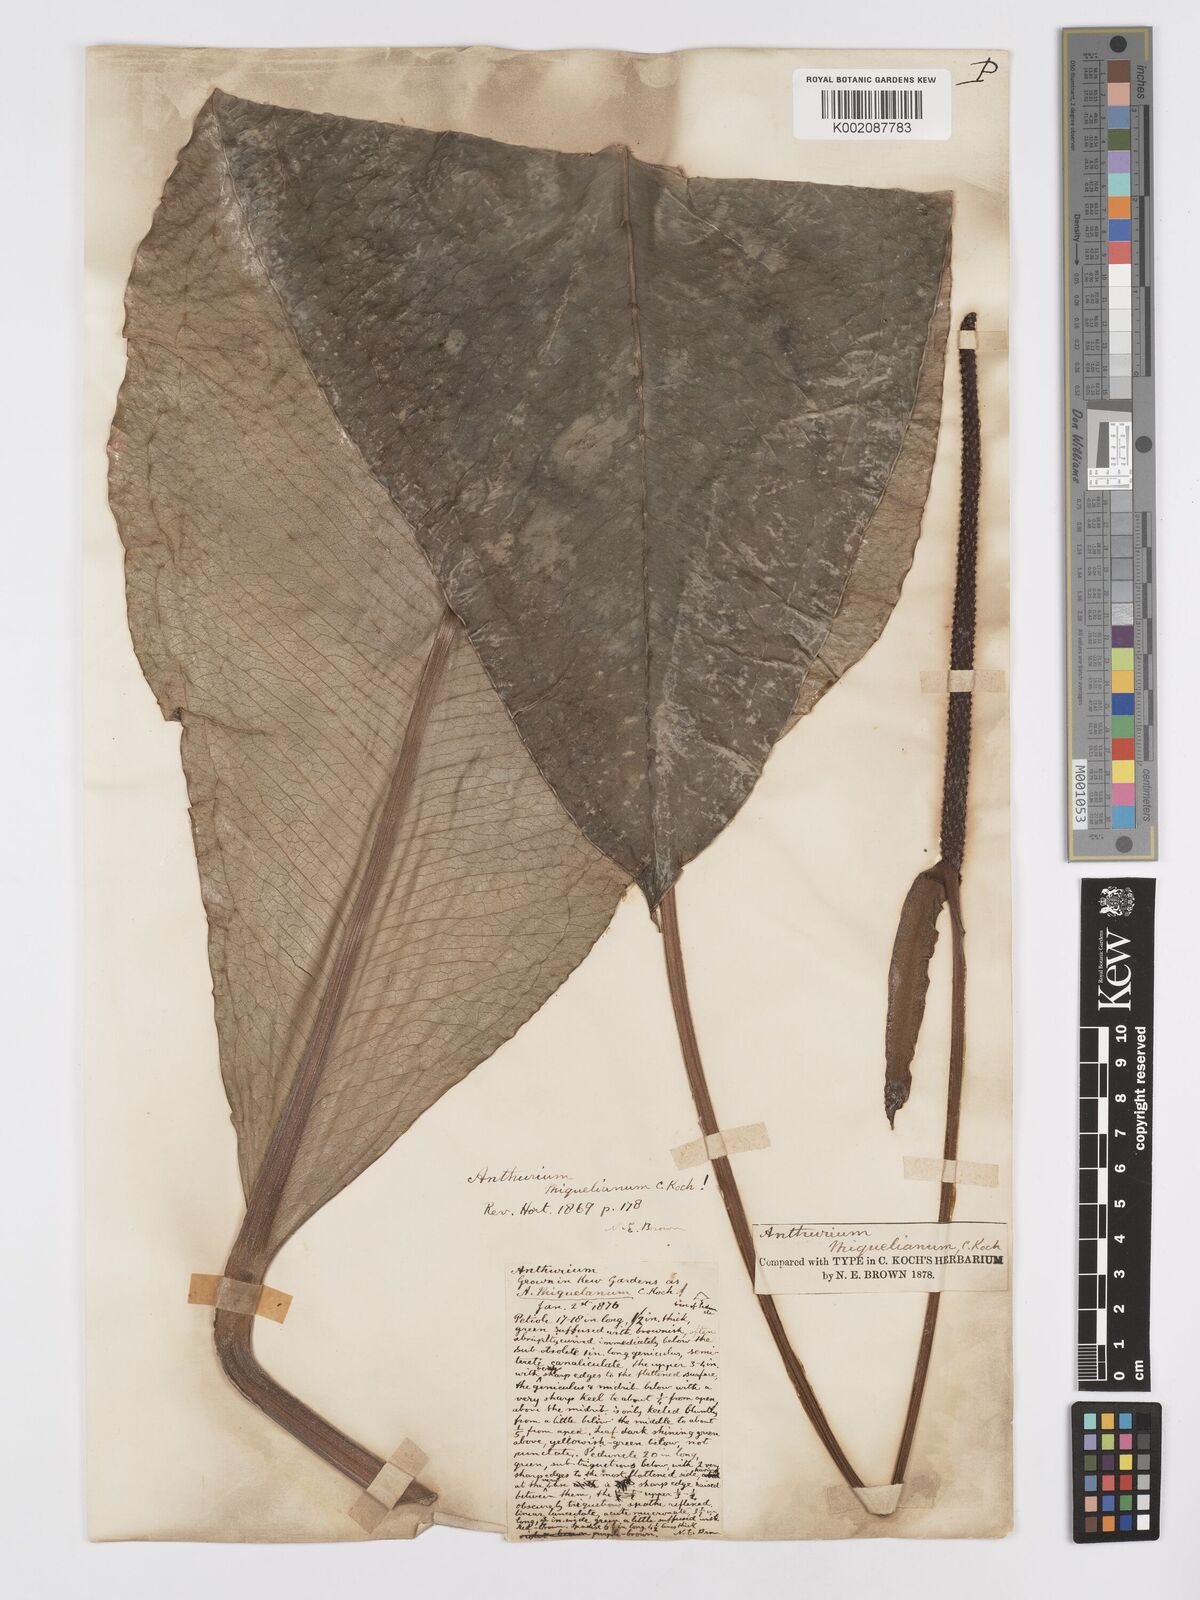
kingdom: Plantae
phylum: Tracheophyta
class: Liliopsida
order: Alismatales
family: Araceae
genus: Anthurium
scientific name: Anthurium parasiticum
